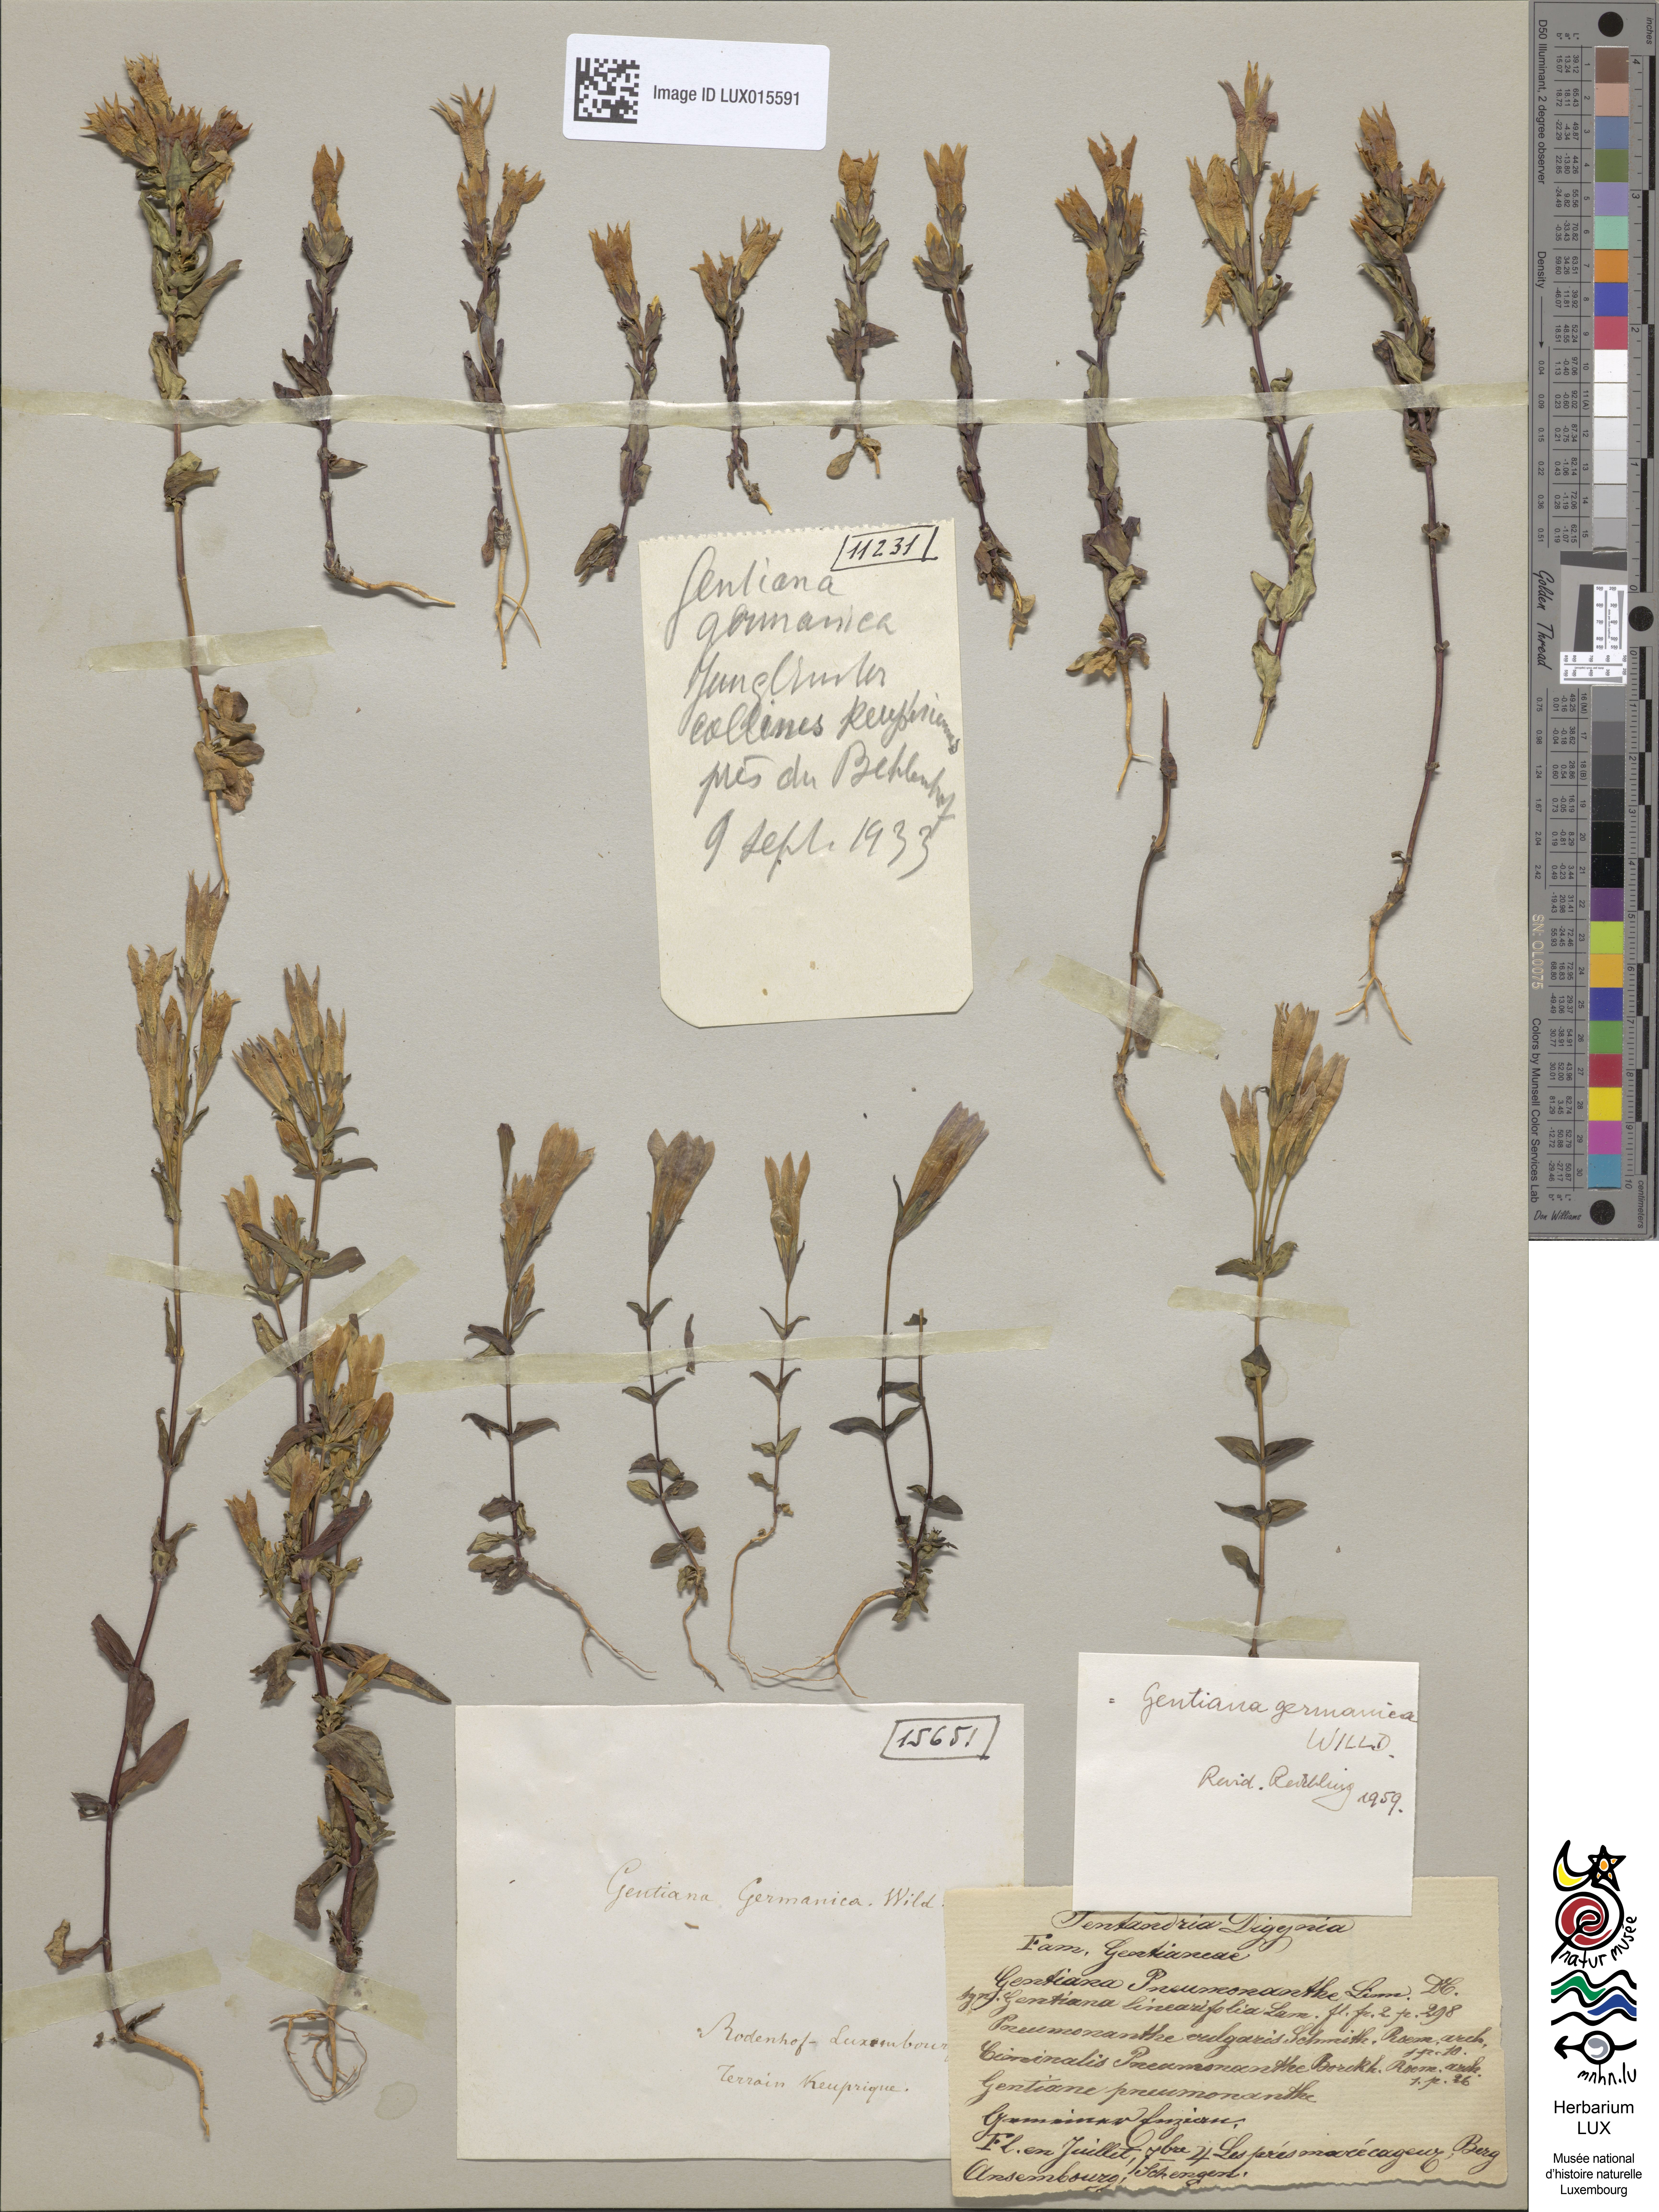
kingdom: Plantae
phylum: Tracheophyta
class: Magnoliopsida
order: Gentianales
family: Gentianaceae
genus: Gentianella
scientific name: Gentianella germanica
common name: Chiltern-gentian
